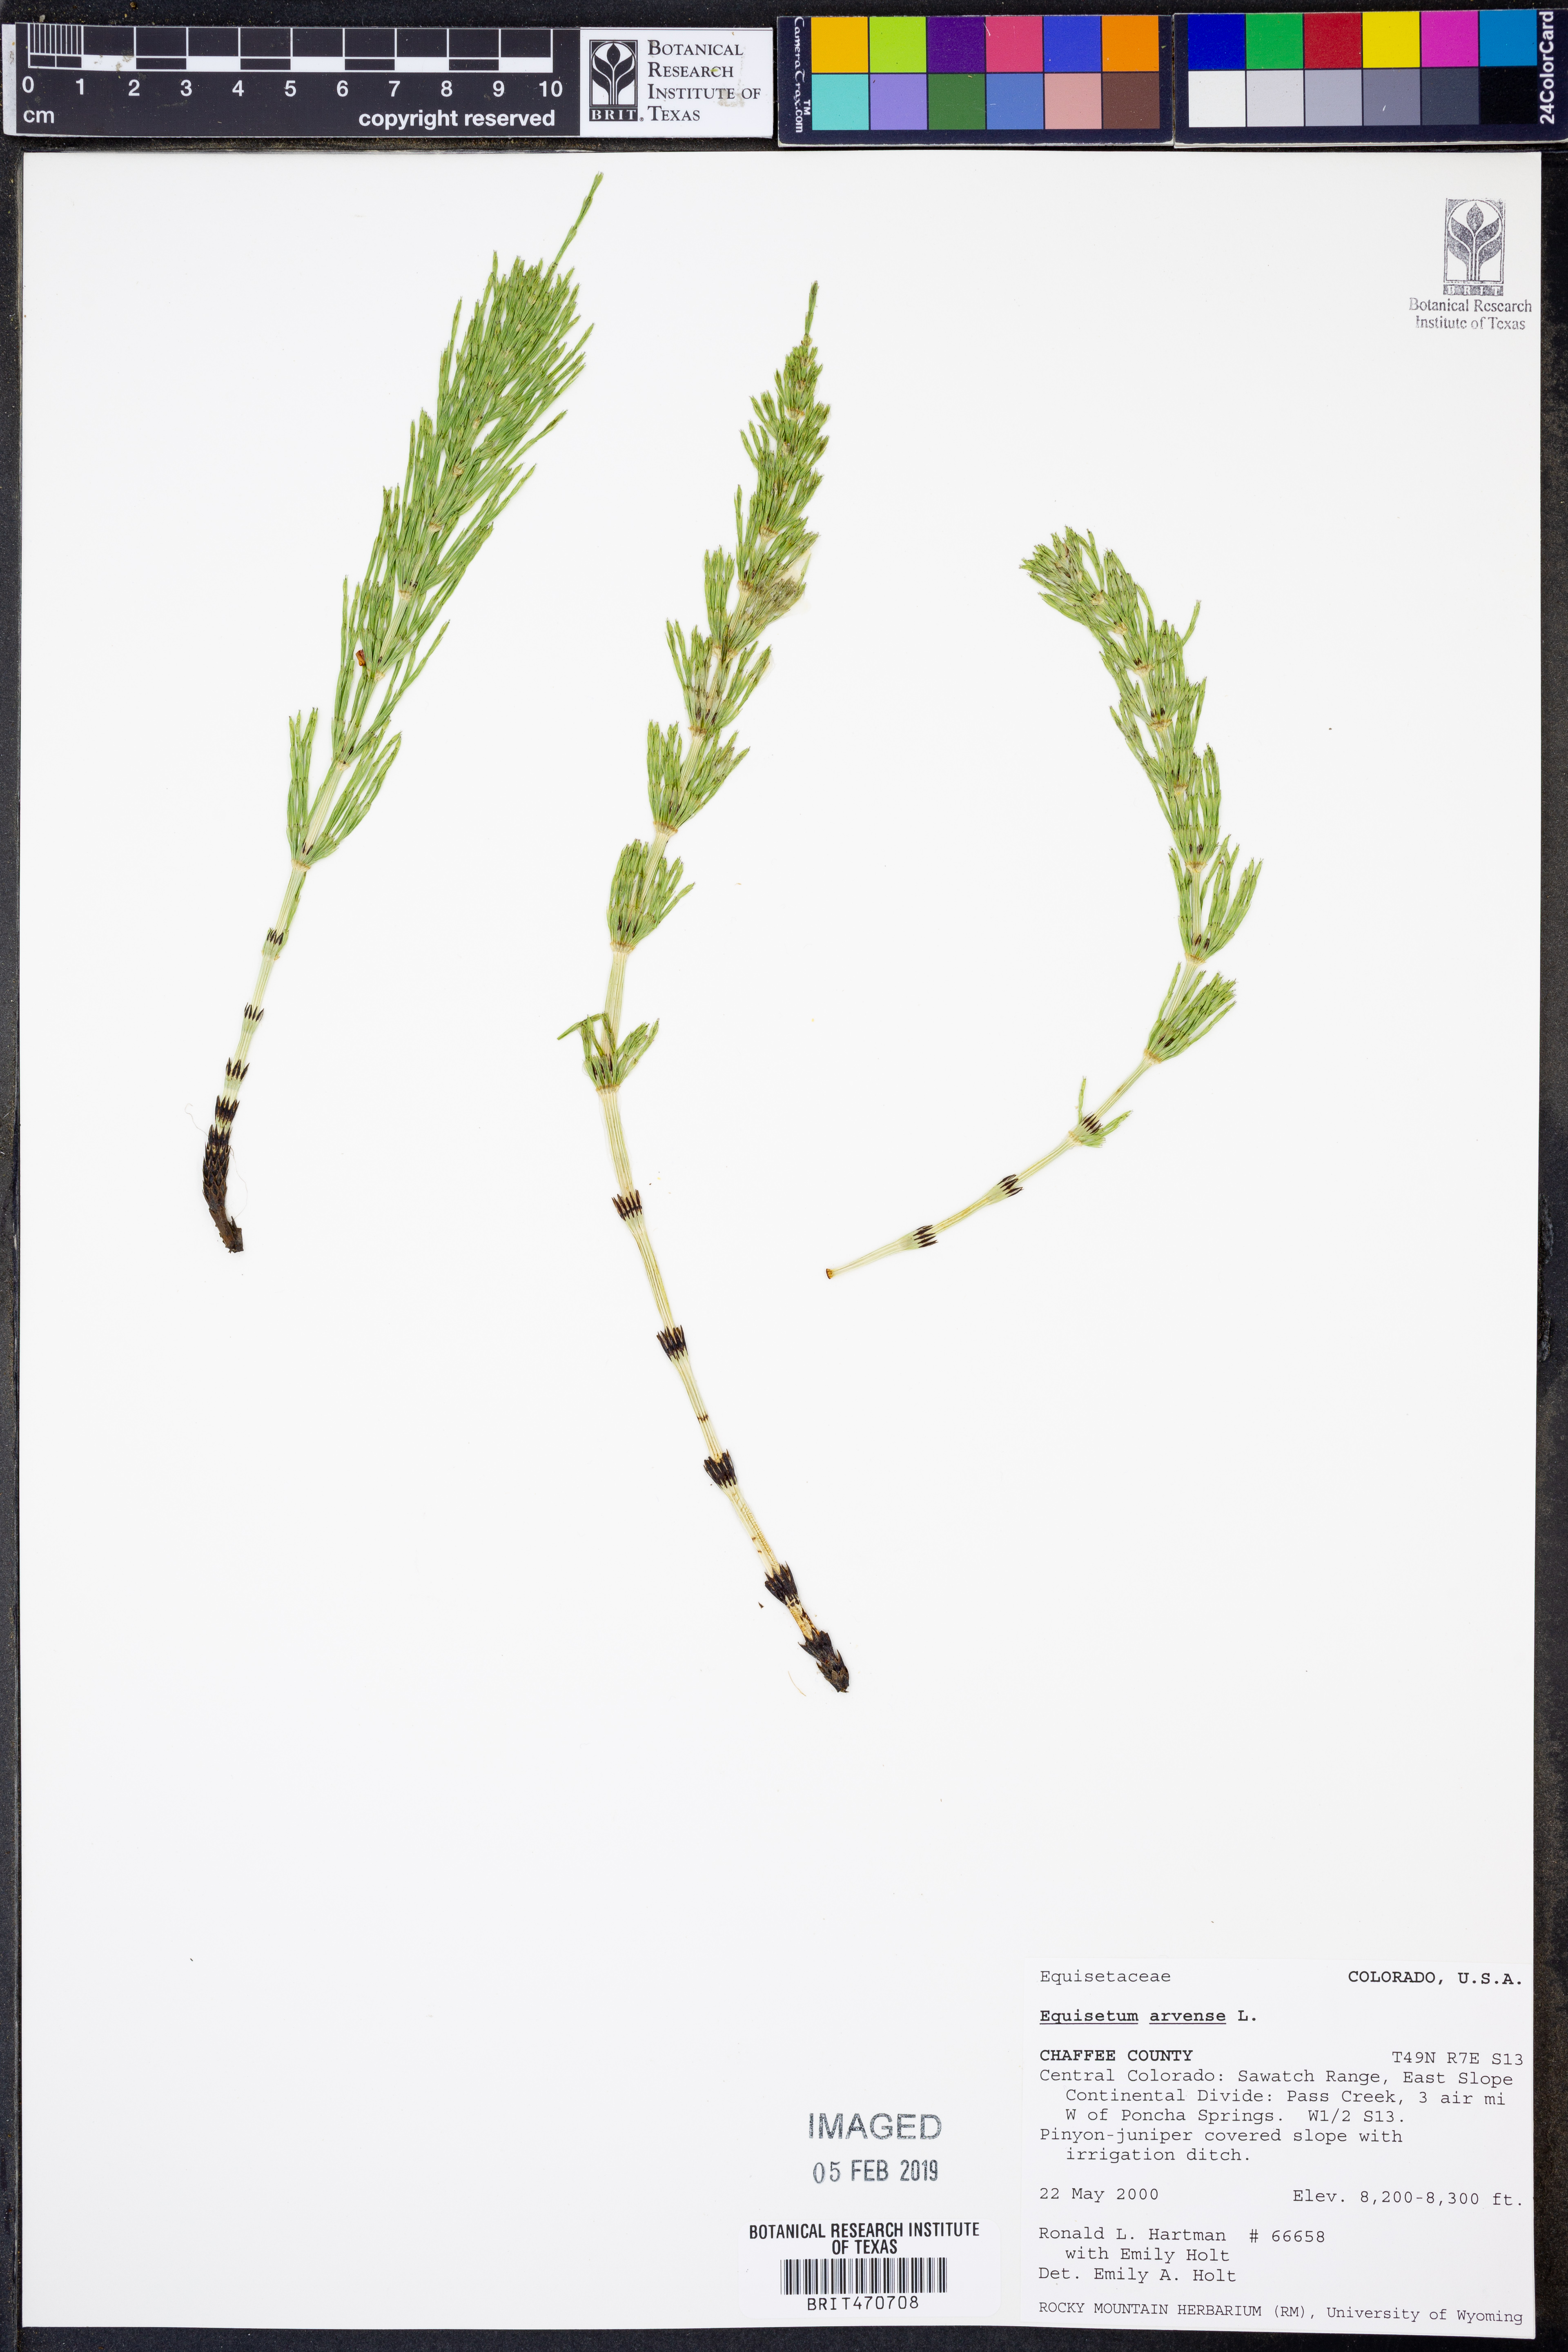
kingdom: Plantae
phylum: Tracheophyta
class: Polypodiopsida
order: Equisetales
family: Equisetaceae
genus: Equisetum
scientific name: Equisetum arvense
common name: Field horsetail
